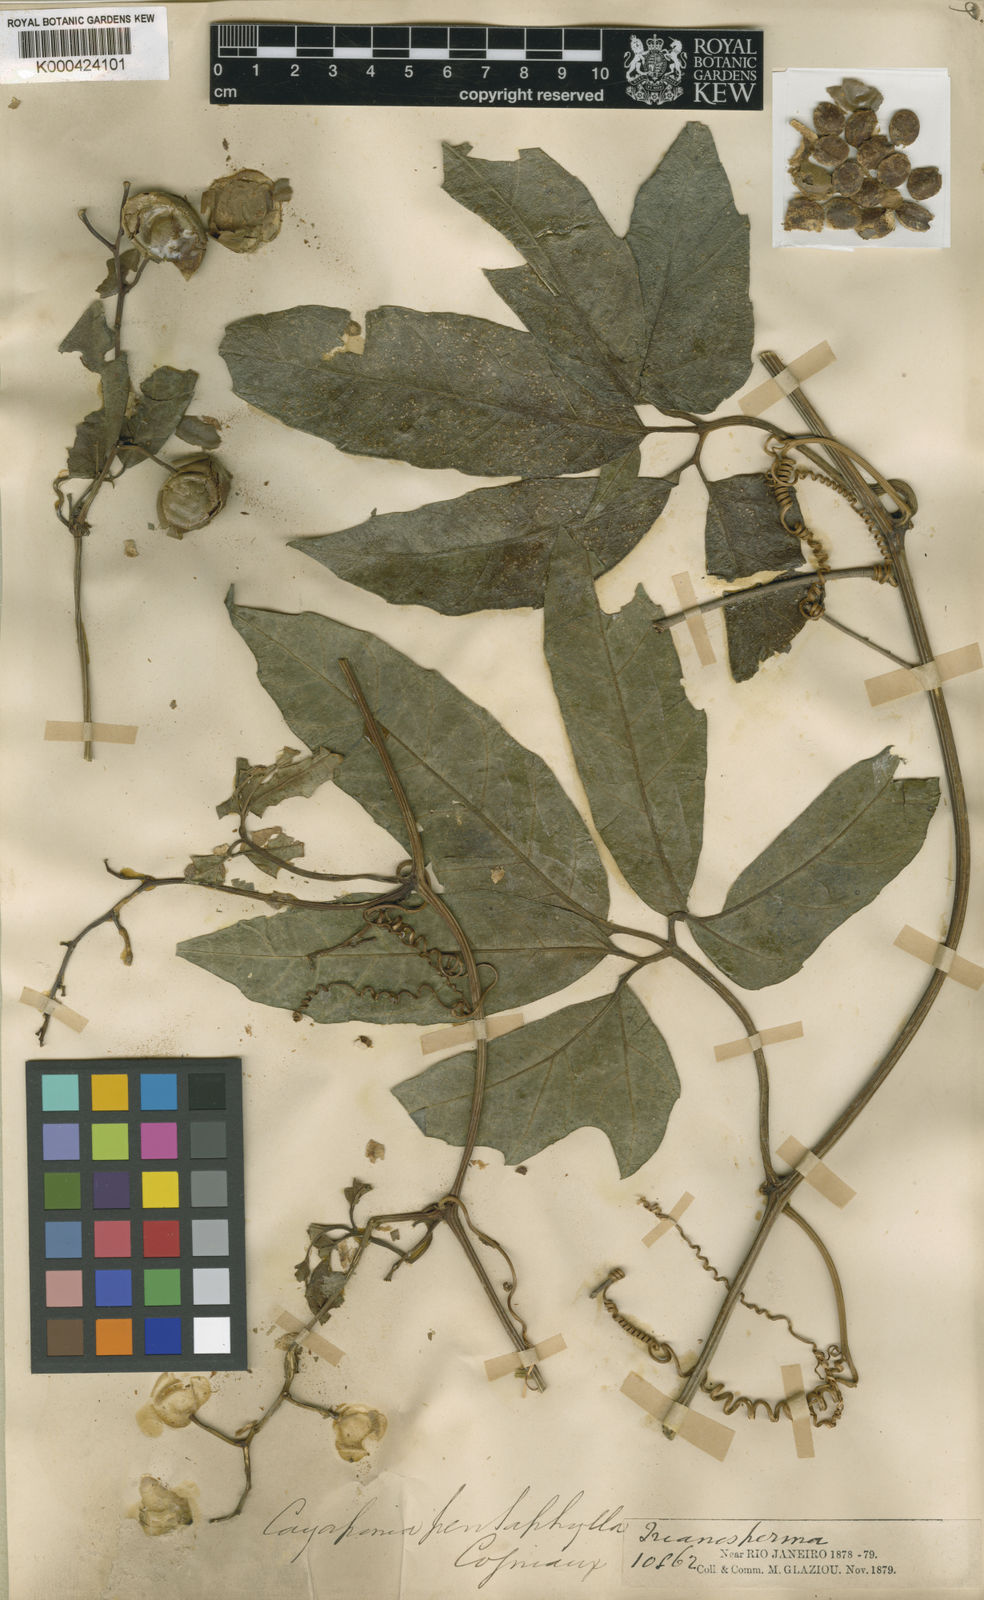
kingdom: Plantae
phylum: Tracheophyta
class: Magnoliopsida
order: Cucurbitales
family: Cucurbitaceae
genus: Cayaponia
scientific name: Cayaponia trifoliolata
